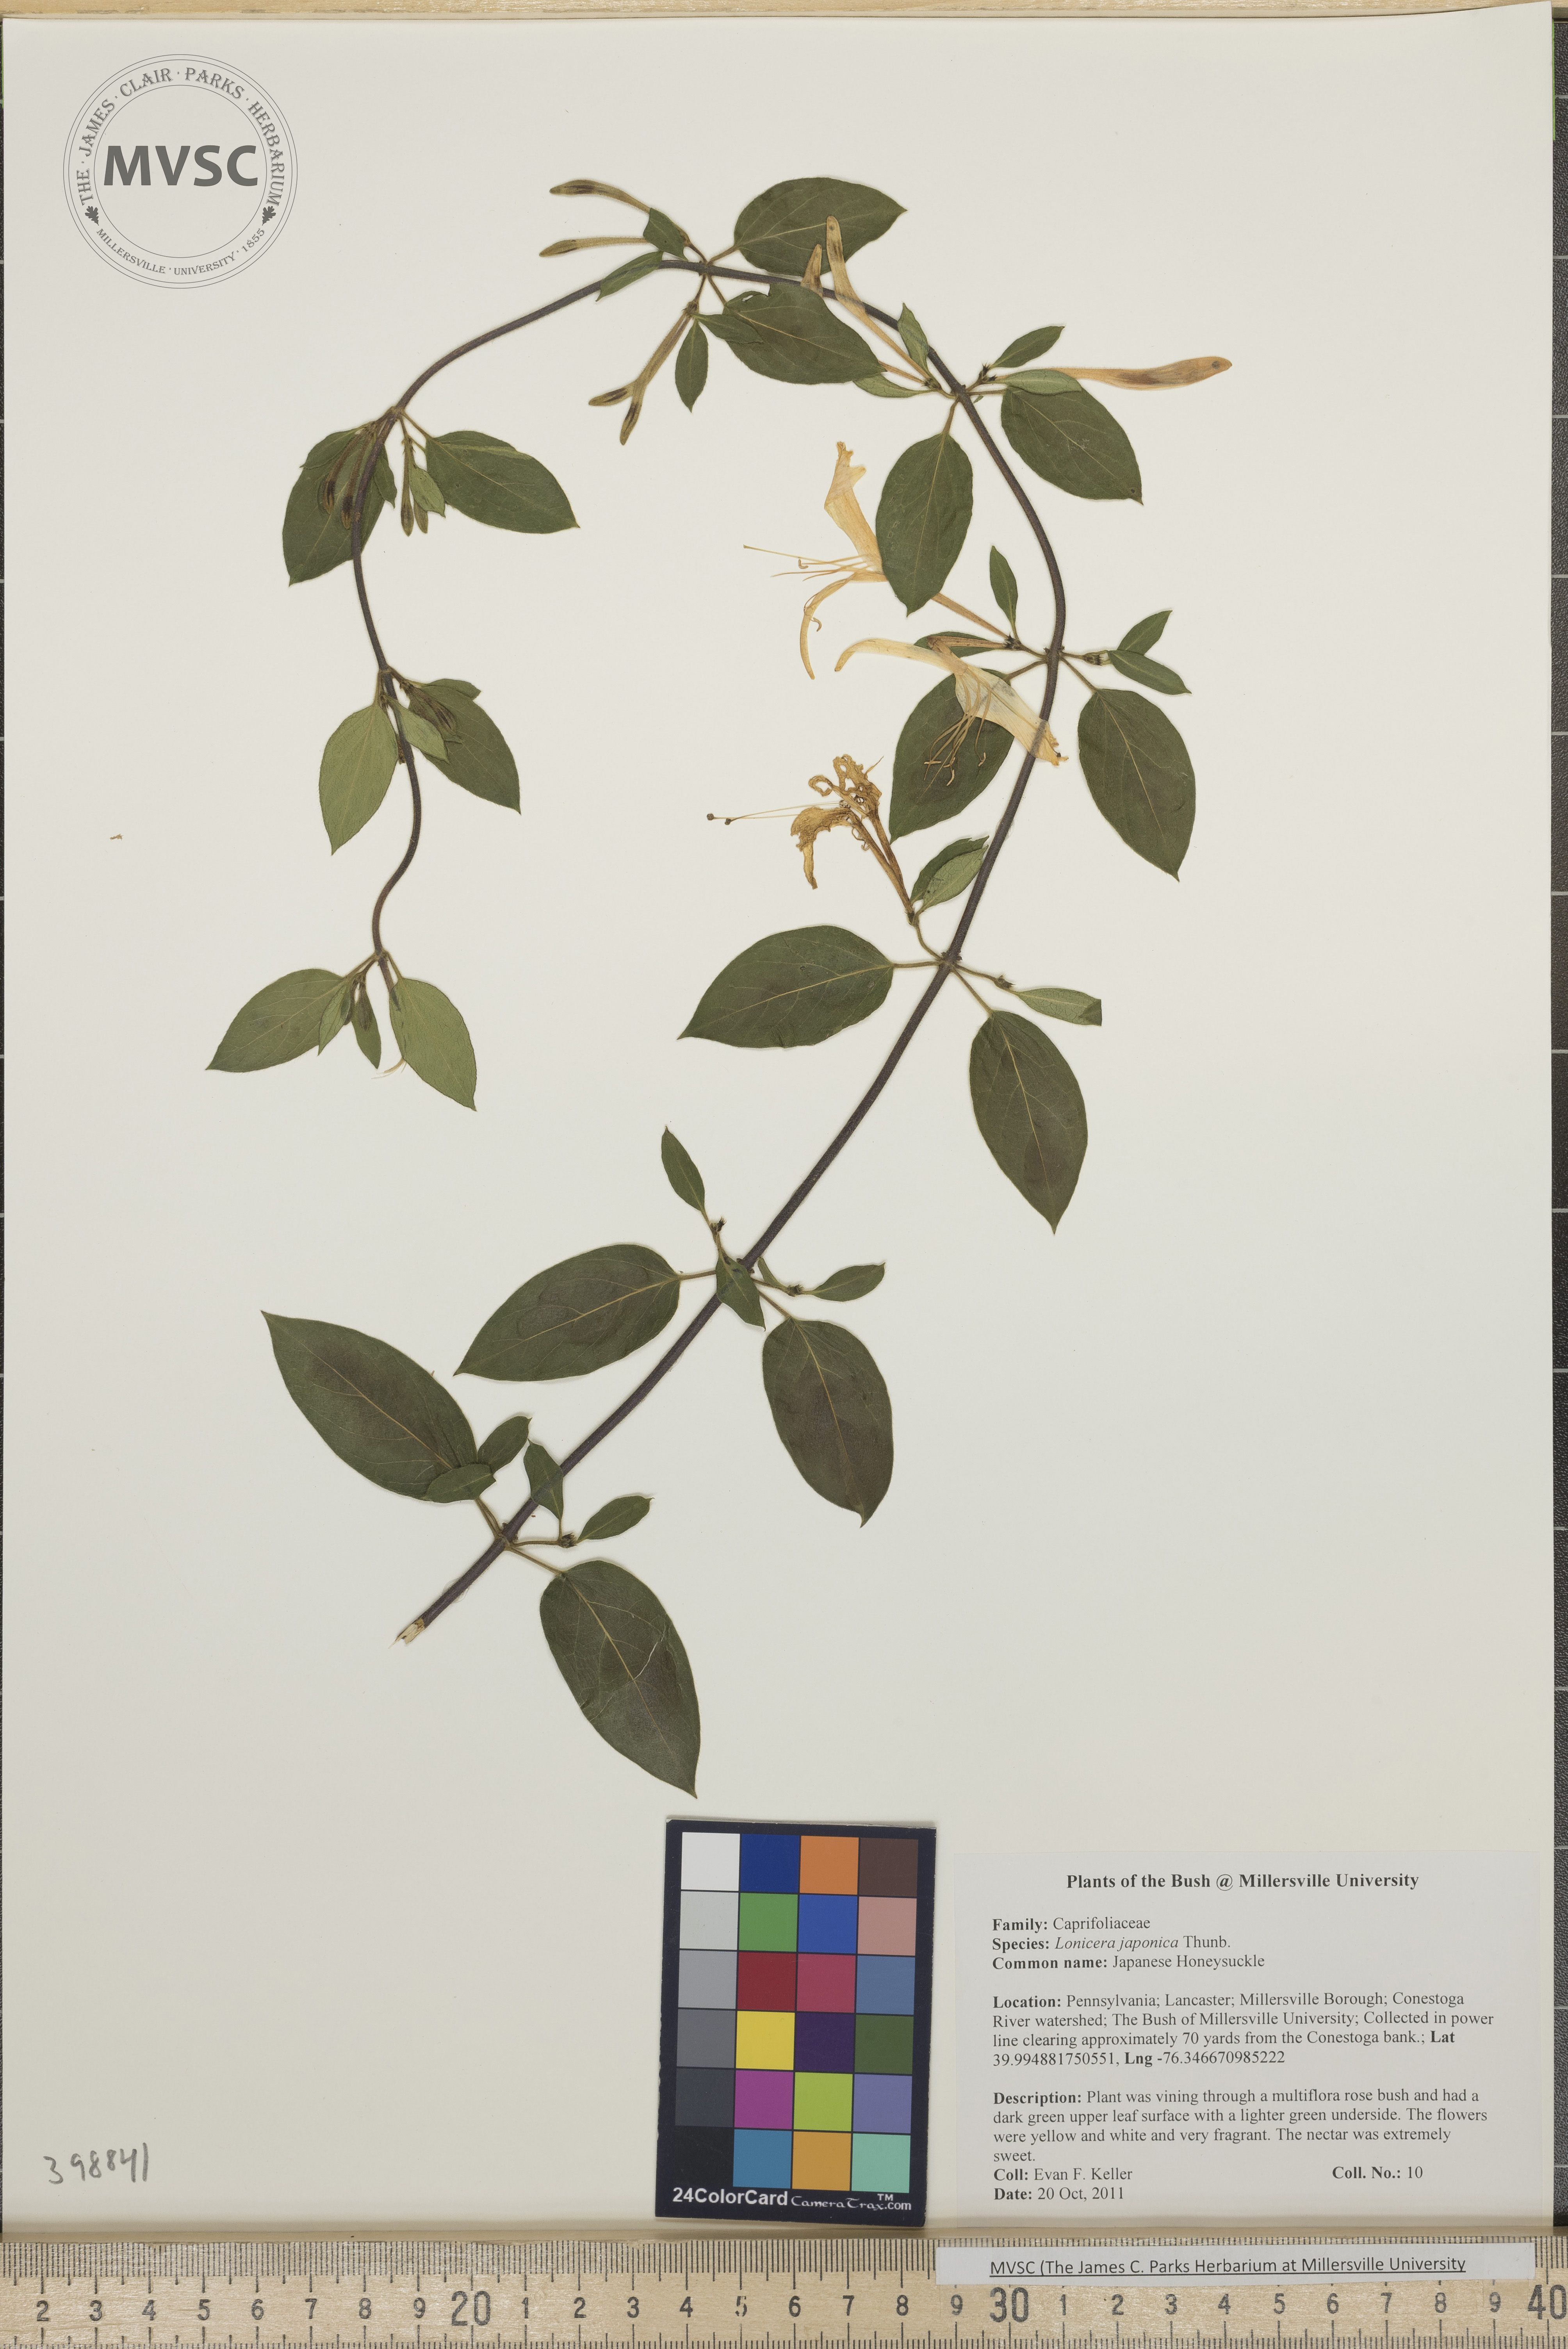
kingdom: Plantae
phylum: Tracheophyta
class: Magnoliopsida
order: Dipsacales
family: Caprifoliaceae
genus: Lonicera
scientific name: Lonicera japonica
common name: Japanese honeysuckle
